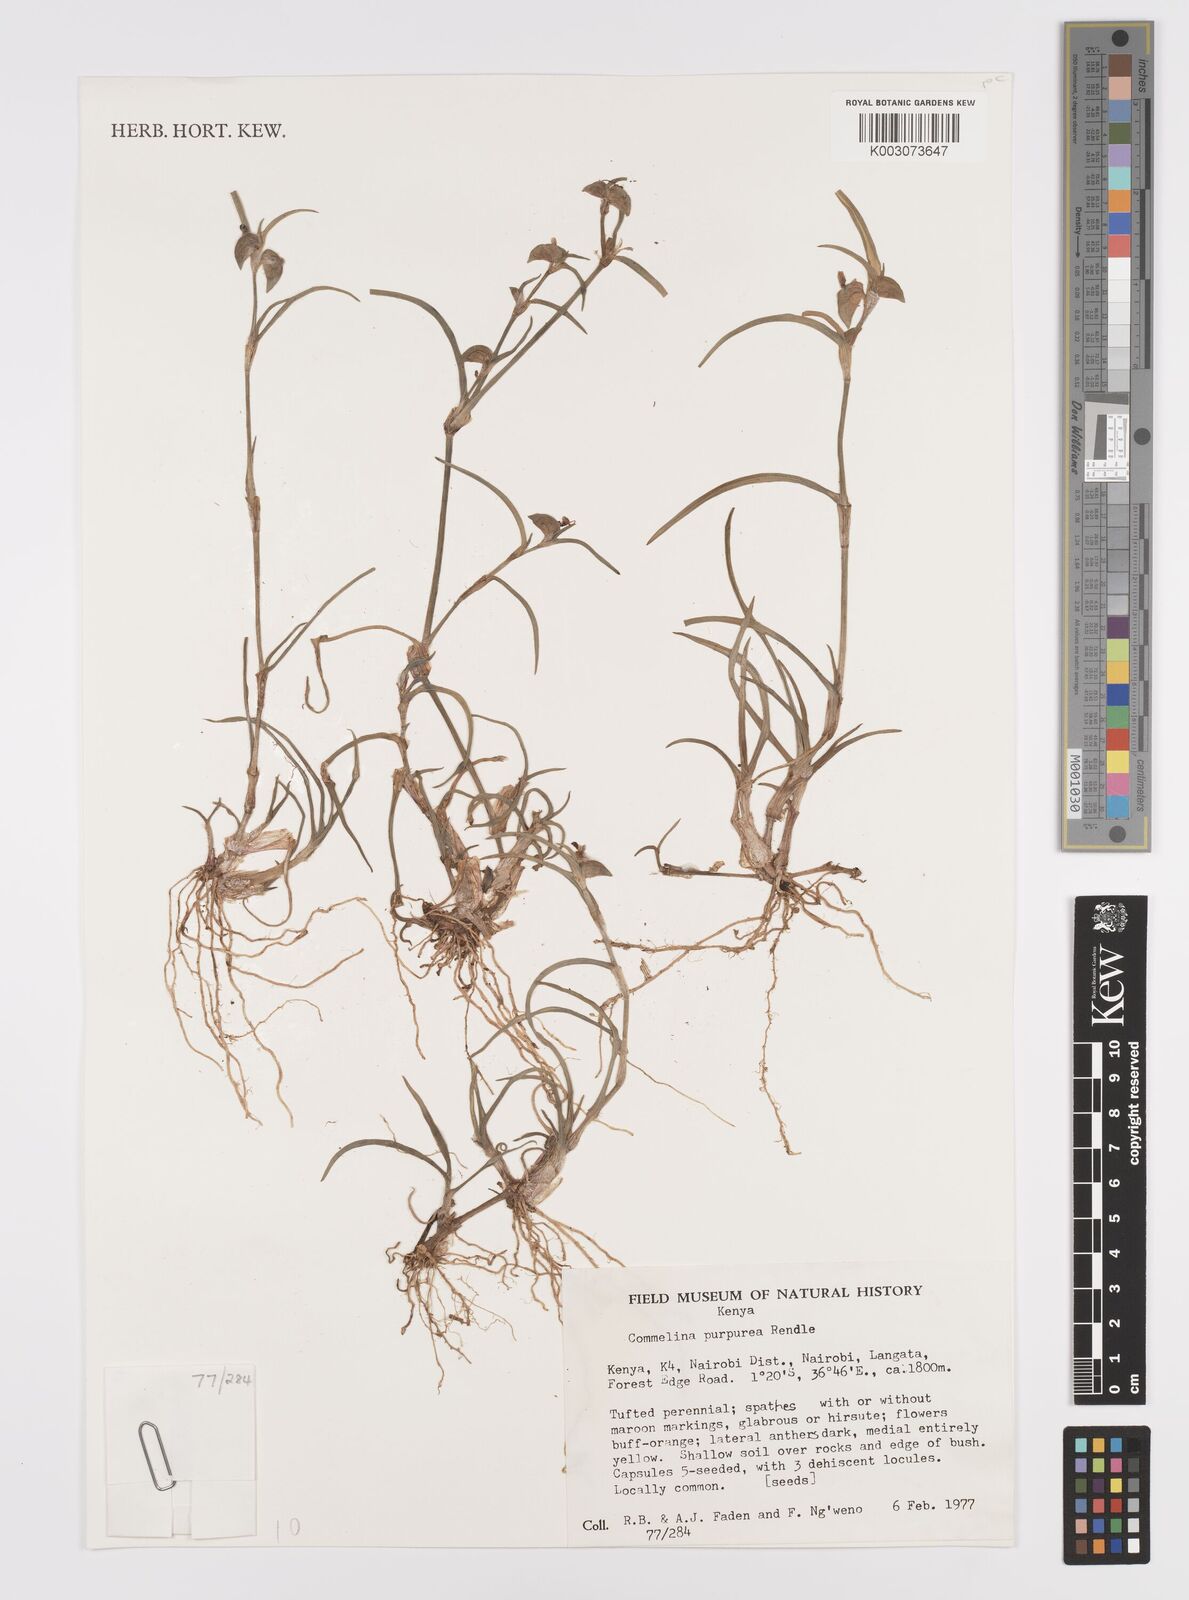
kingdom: Plantae
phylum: Tracheophyta
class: Liliopsida
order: Commelinales
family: Commelinaceae
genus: Commelina
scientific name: Commelina purpurea
